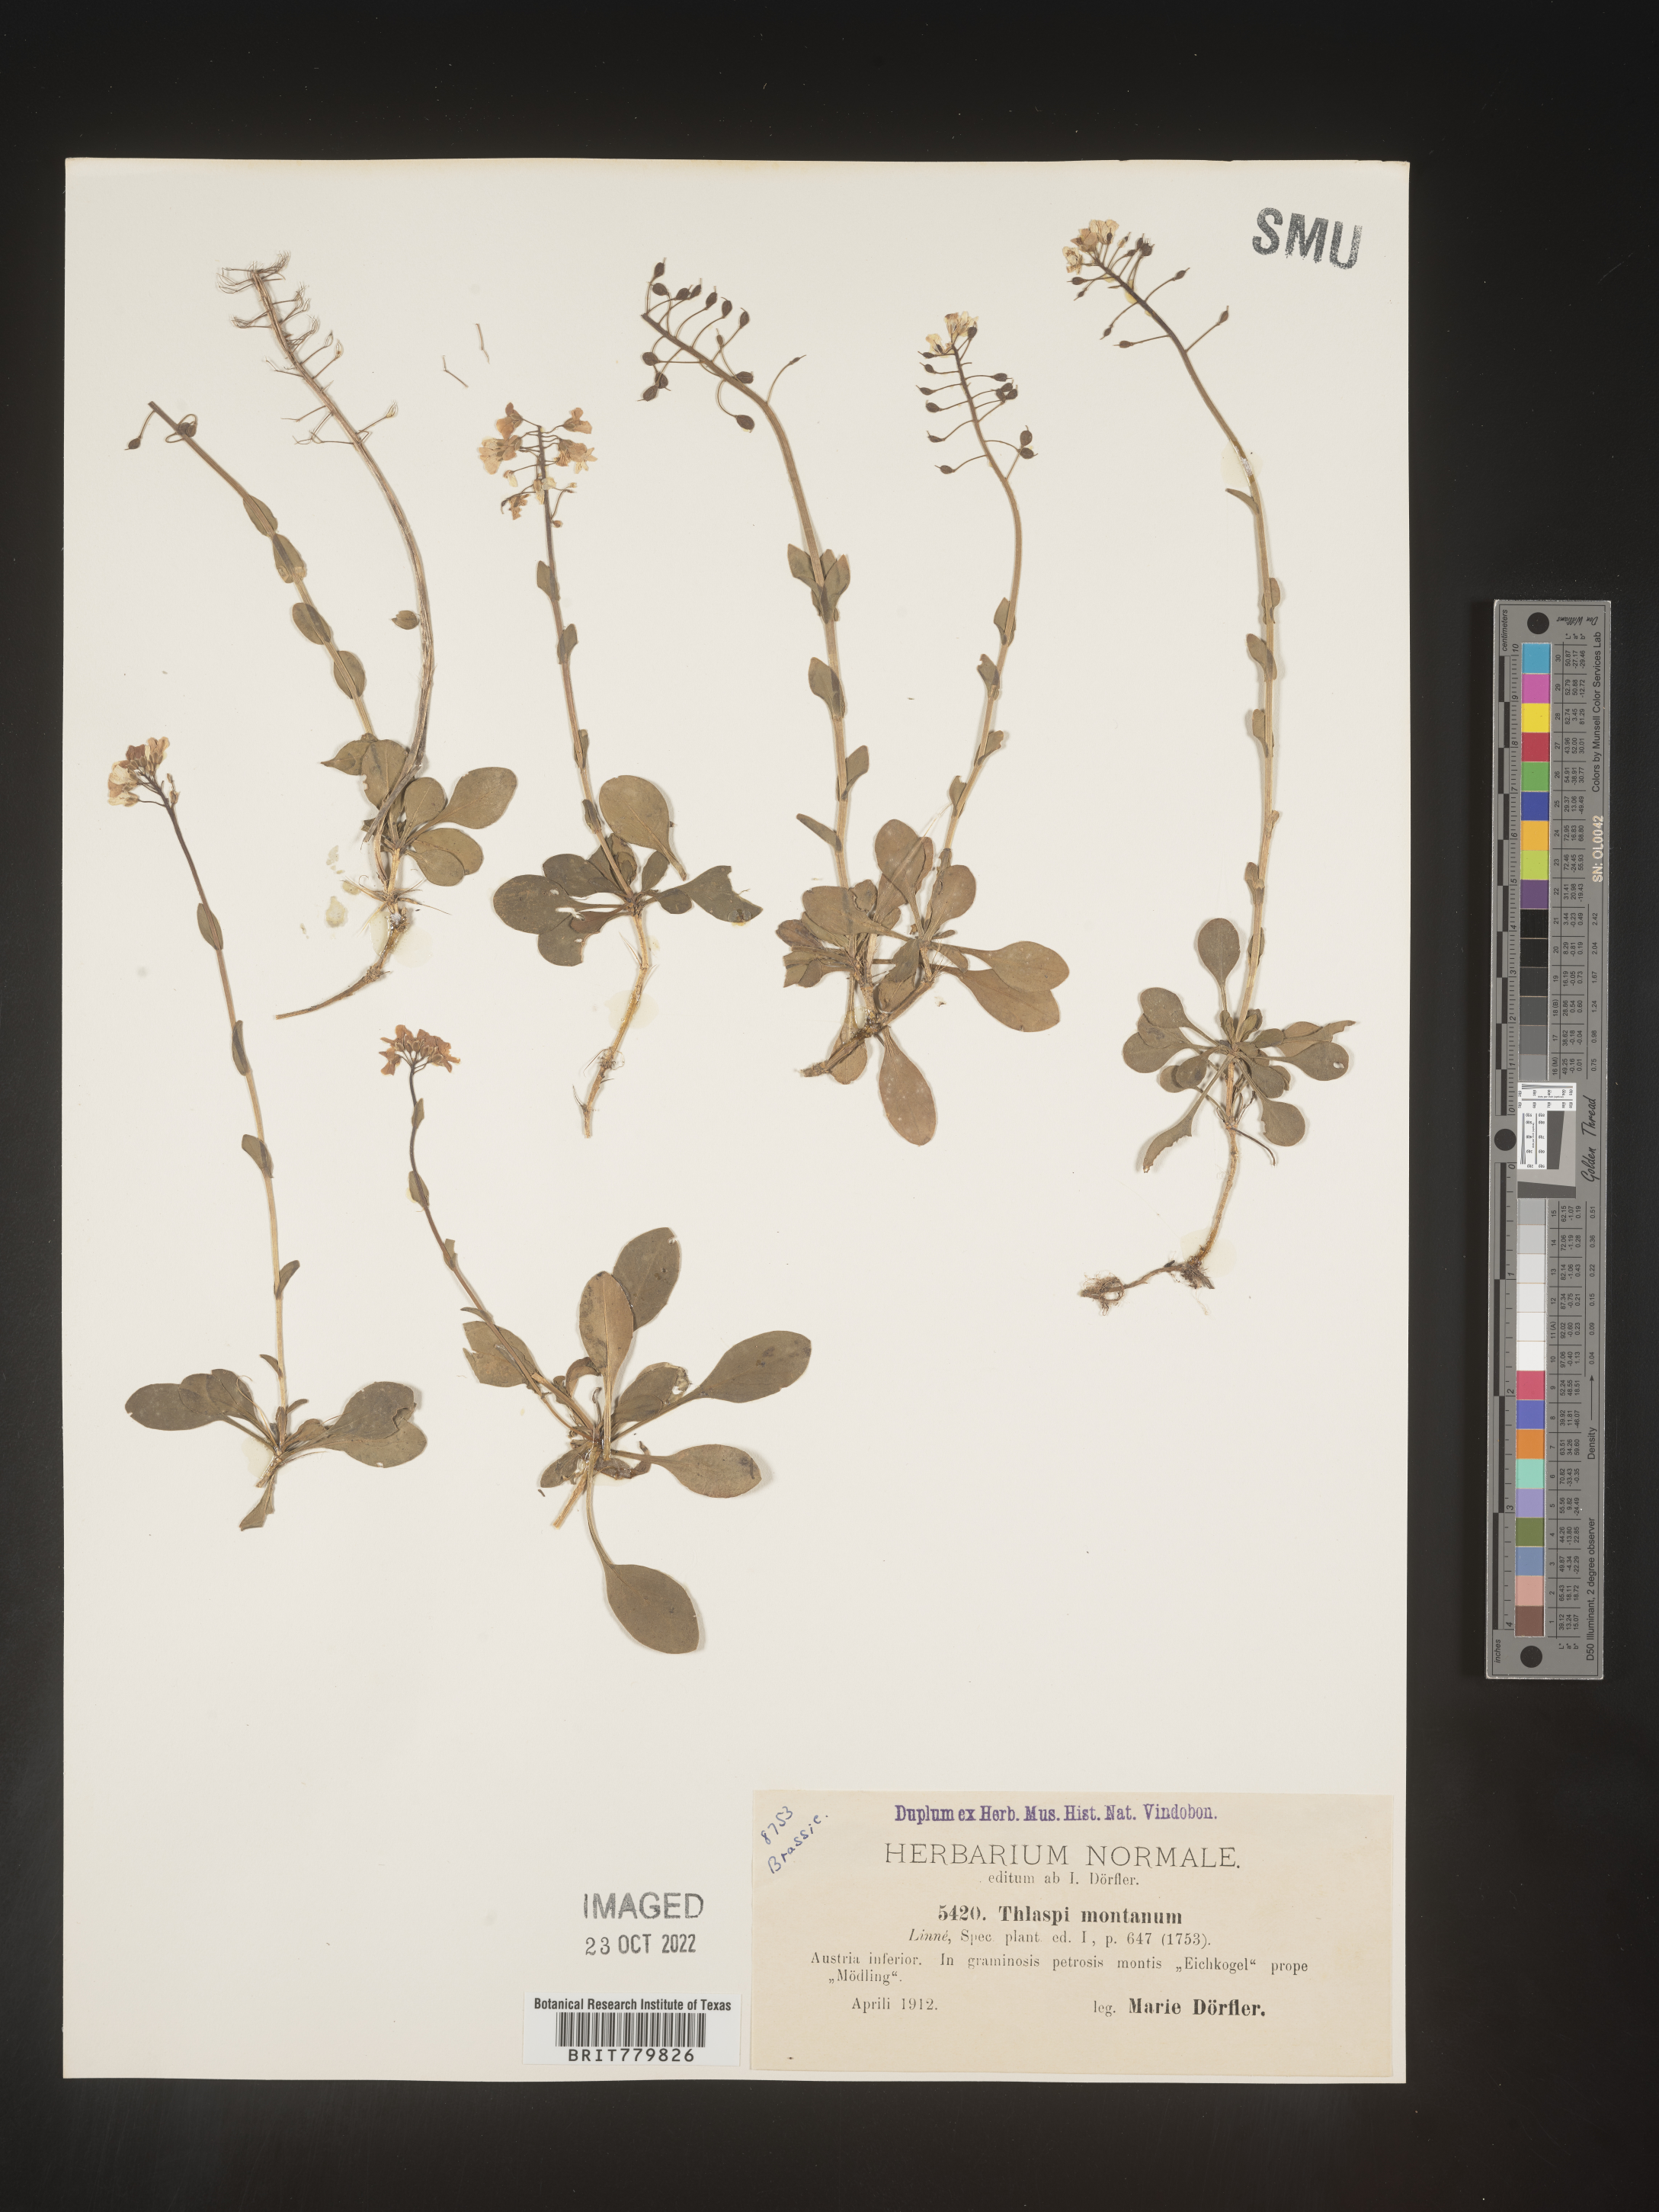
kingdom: Plantae
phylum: Tracheophyta
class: Magnoliopsida
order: Brassicales
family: Brassicaceae
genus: Thlaspi
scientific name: Thlaspi
